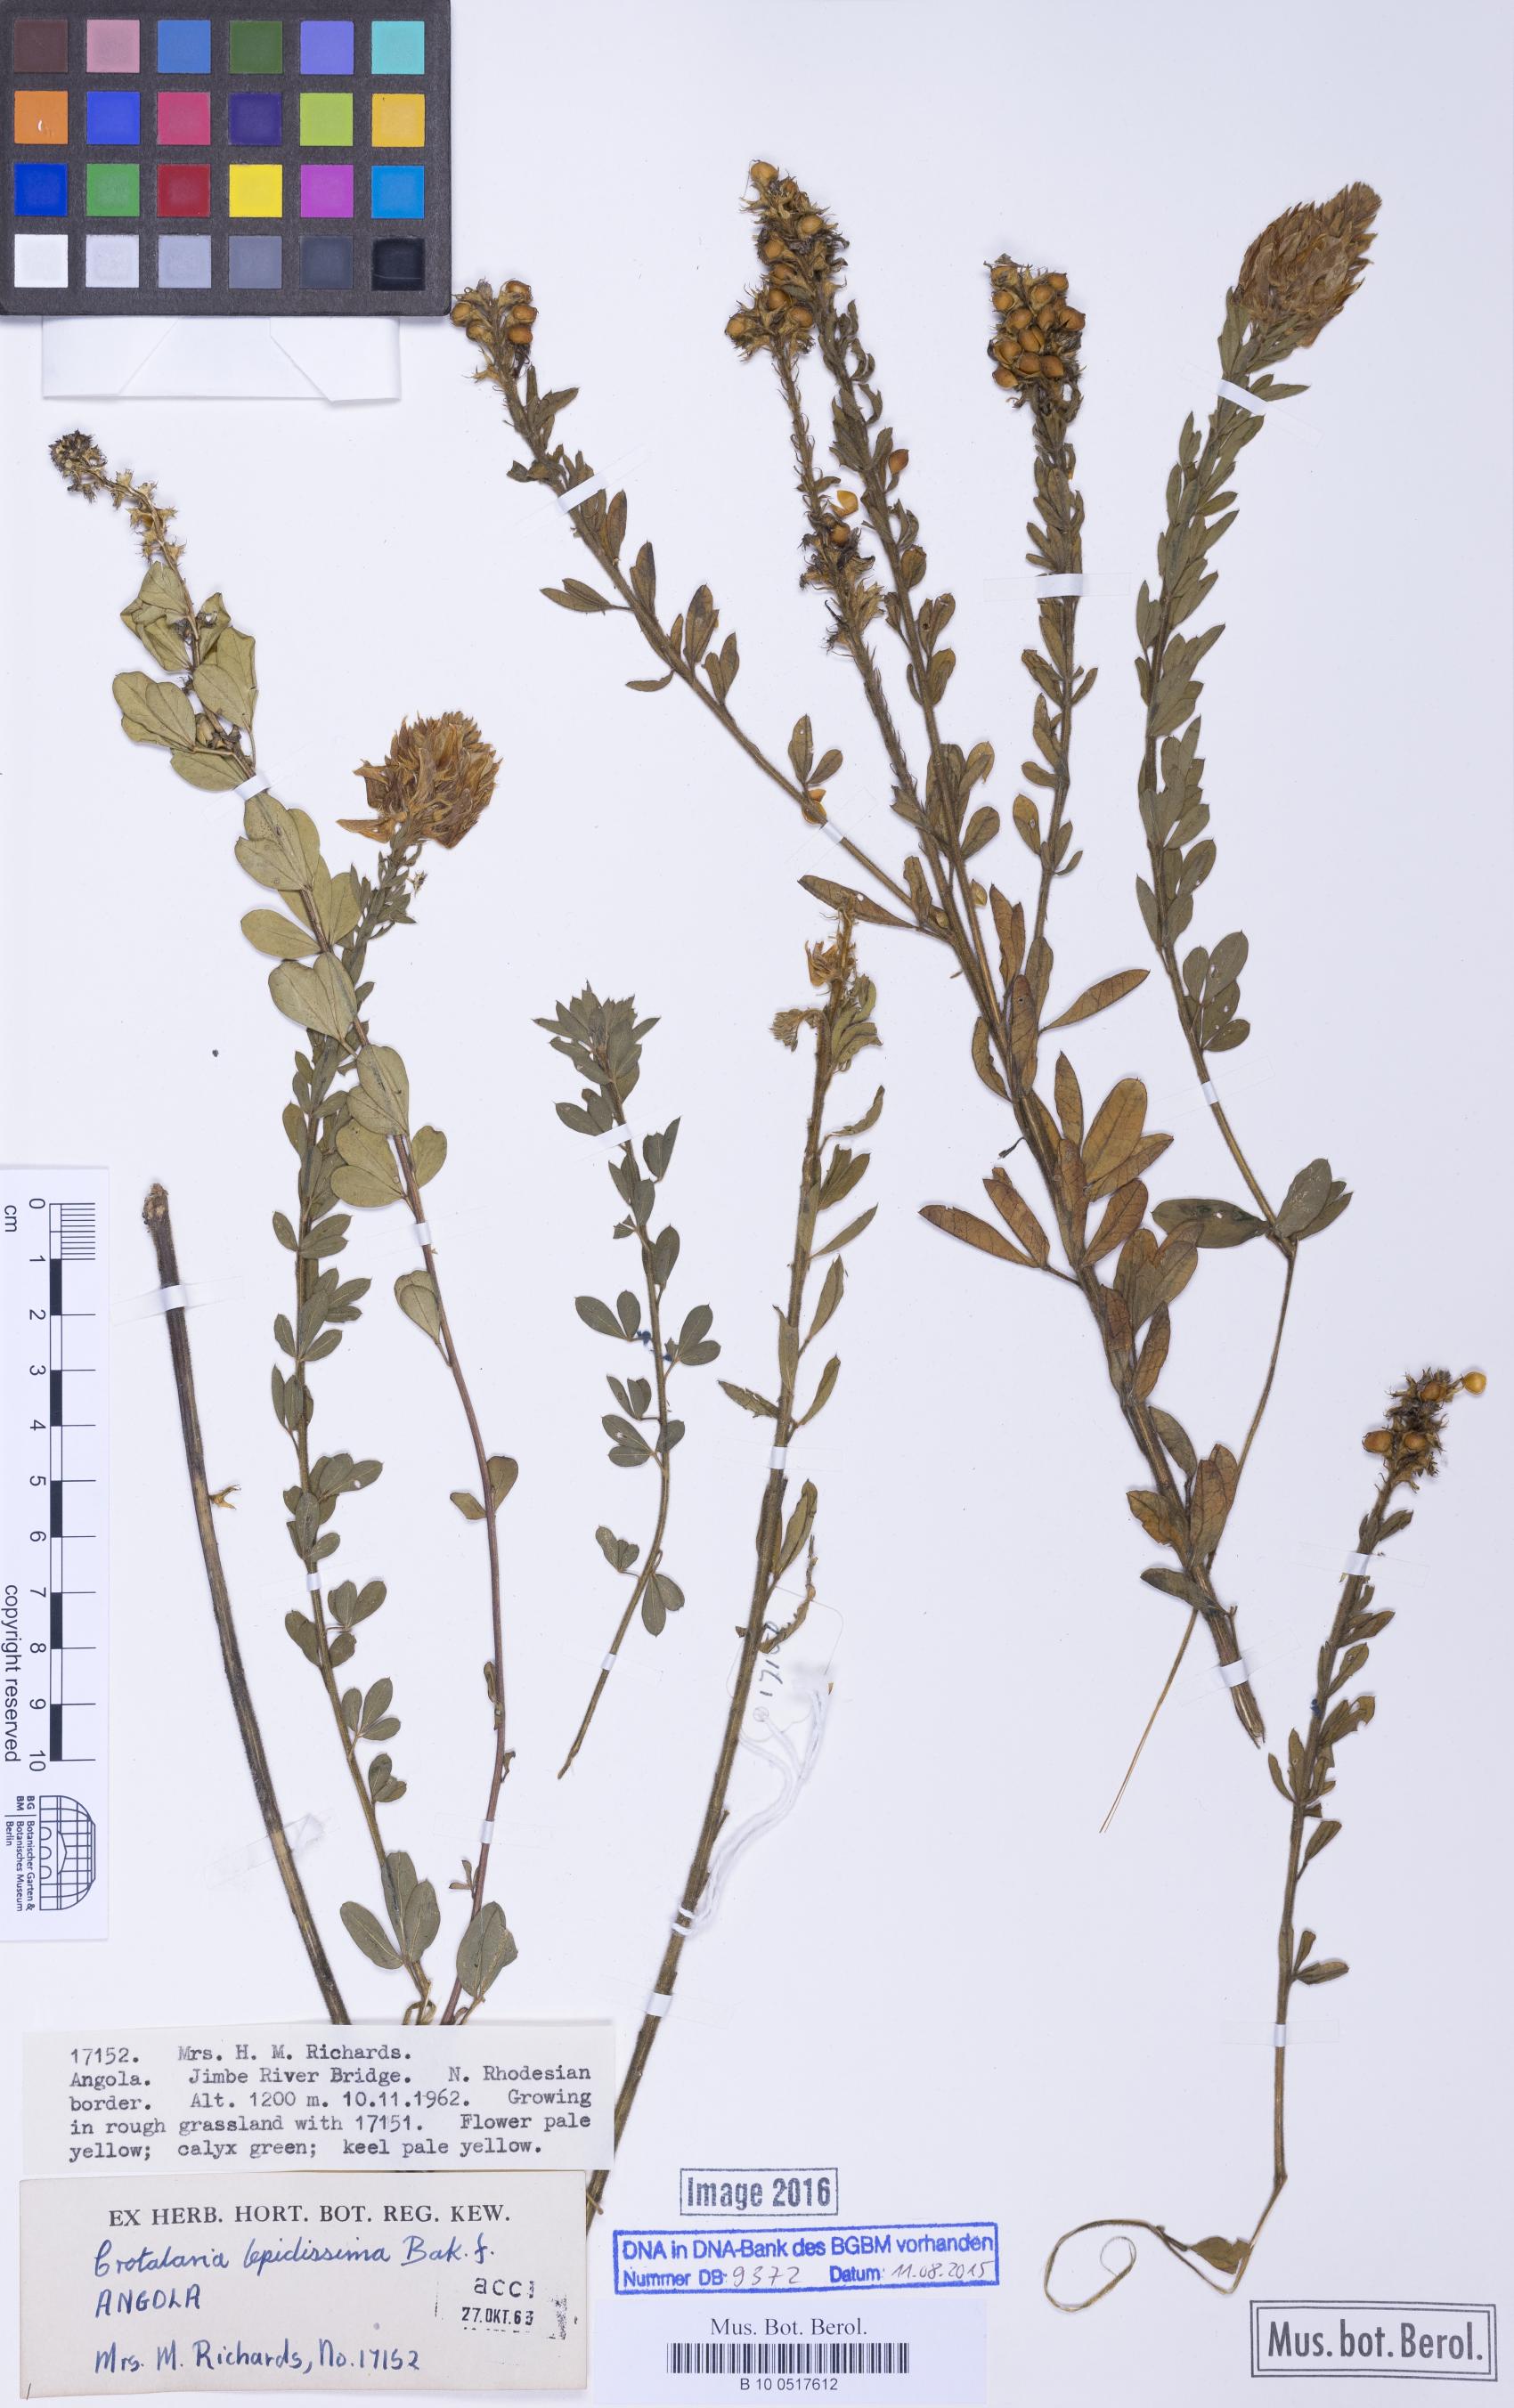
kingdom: Plantae
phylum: Tracheophyta
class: Magnoliopsida
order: Fabales
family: Fabaceae
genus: Crotalaria
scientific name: Crotalaria lepidissima
